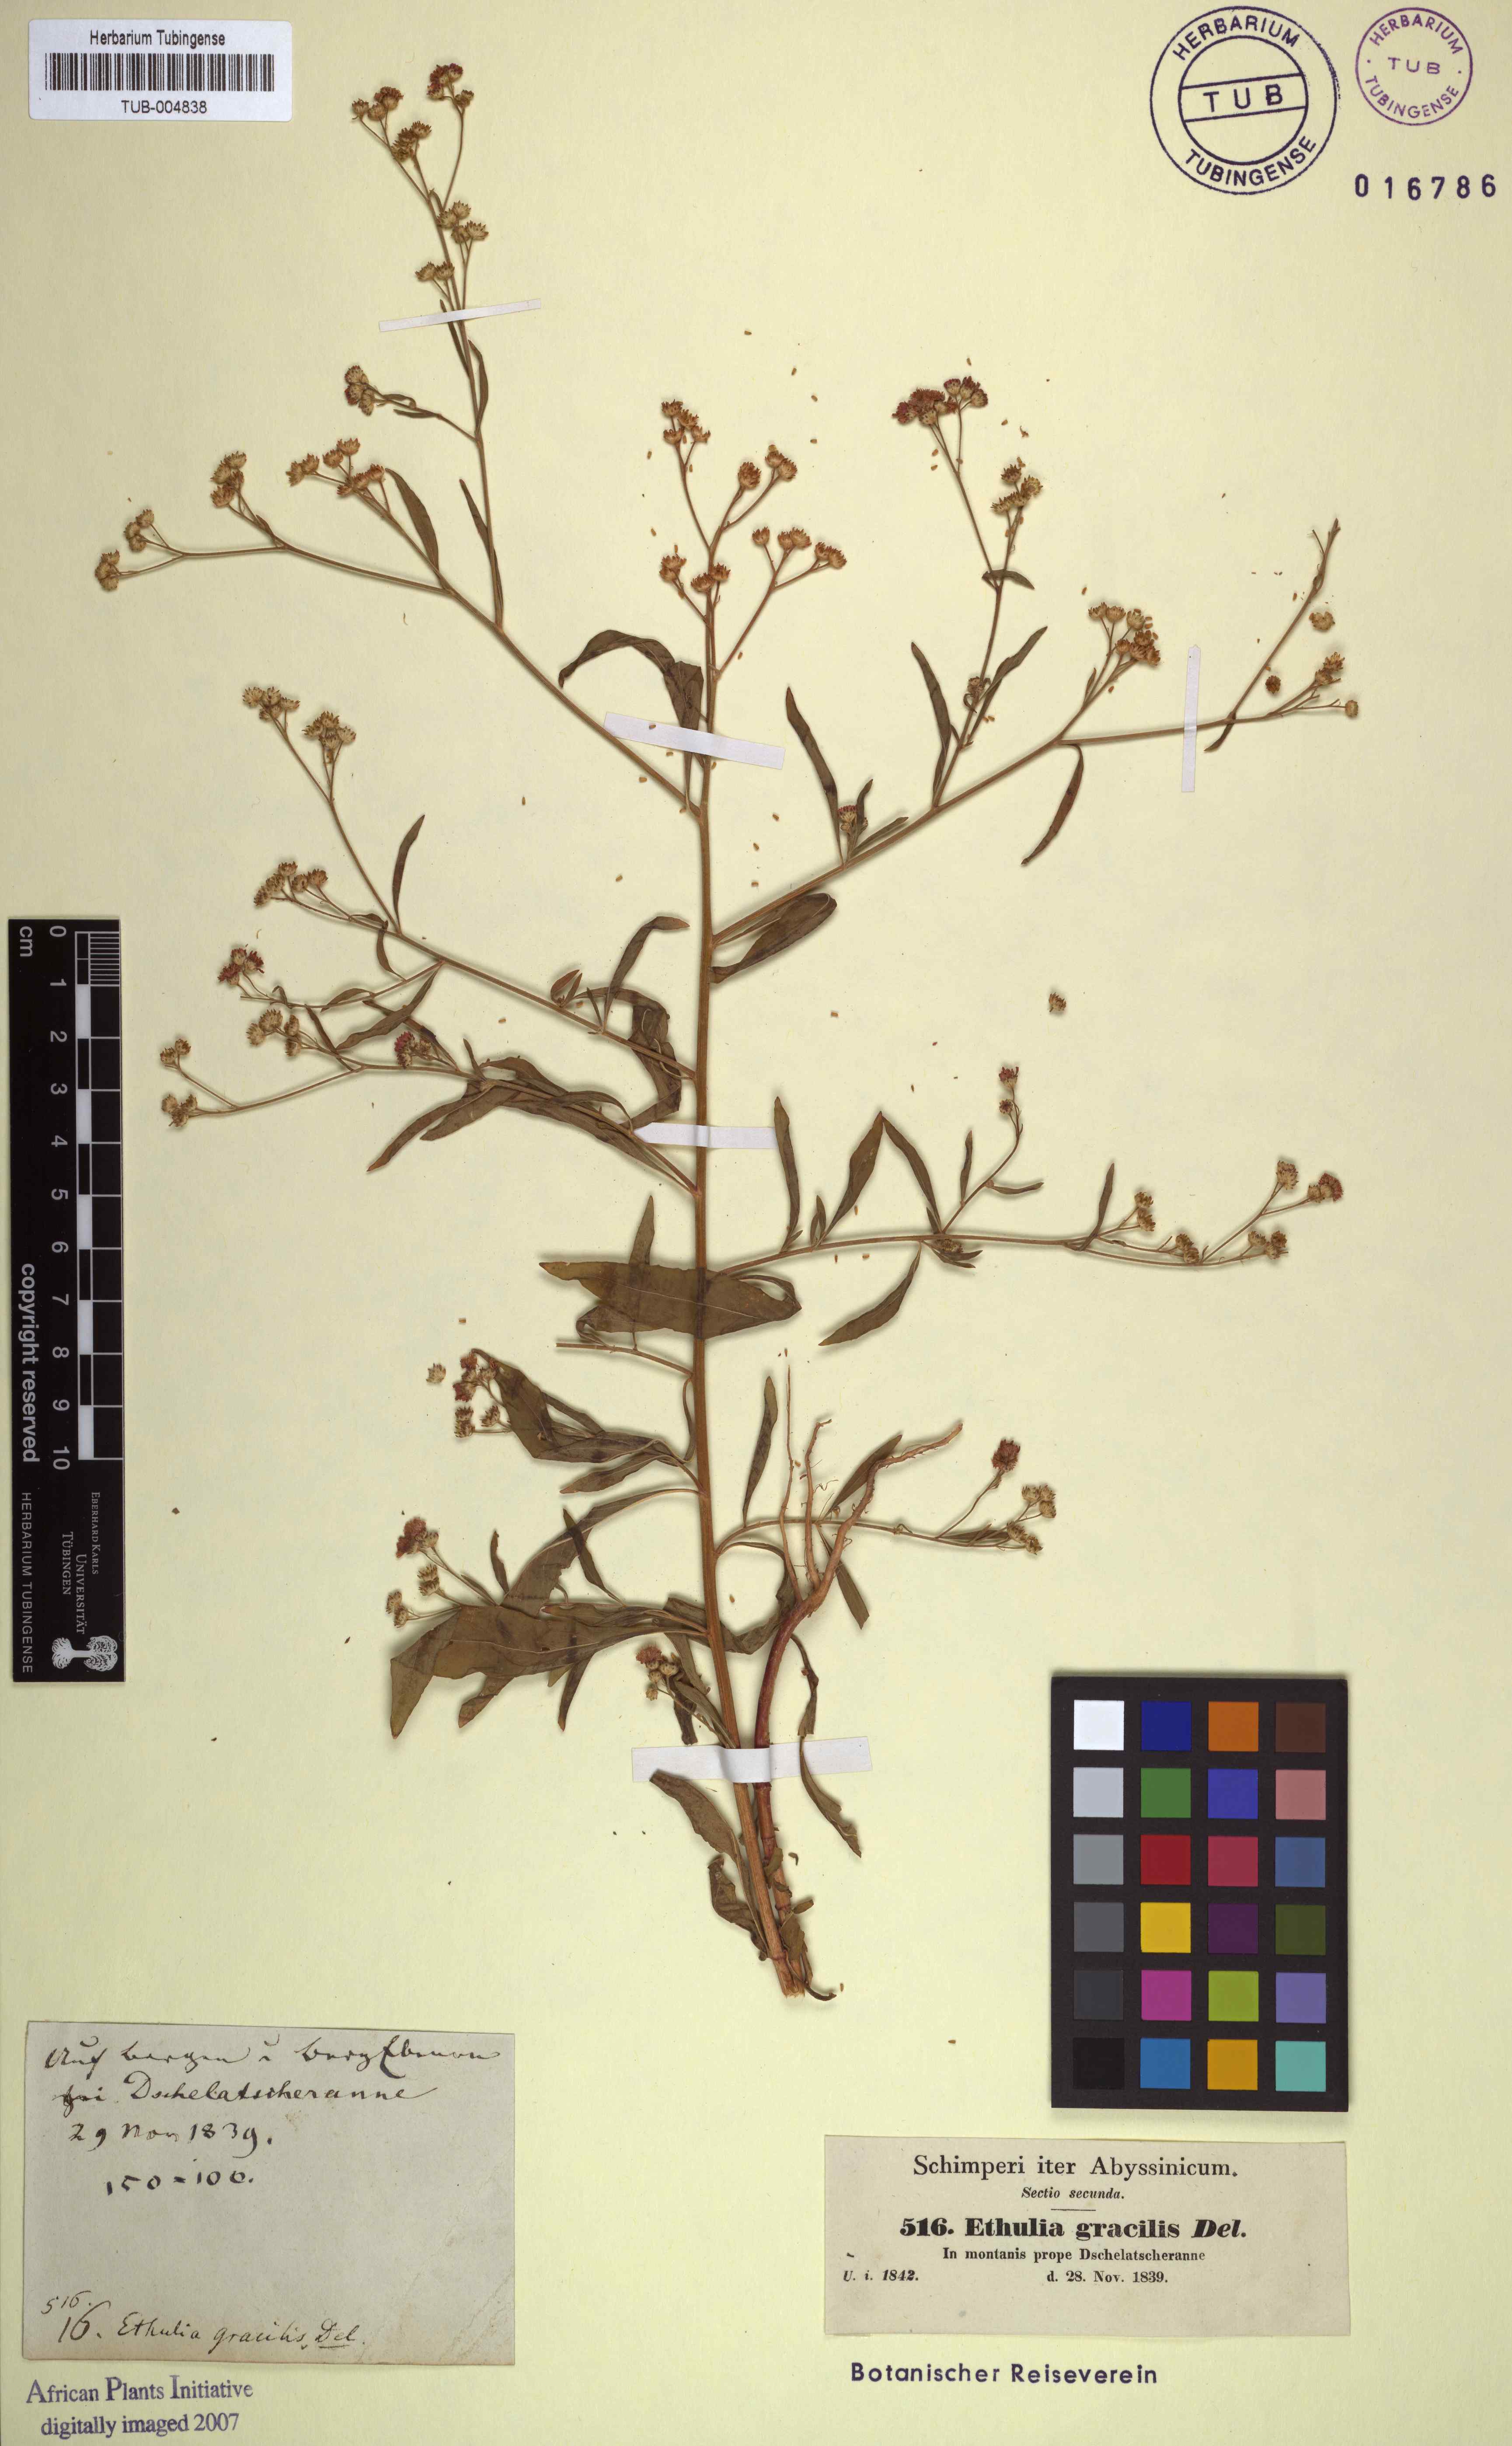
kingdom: Plantae
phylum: Tracheophyta
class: Magnoliopsida
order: Asterales
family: Asteraceae
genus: Ethulia
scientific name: Ethulia conyzoides
